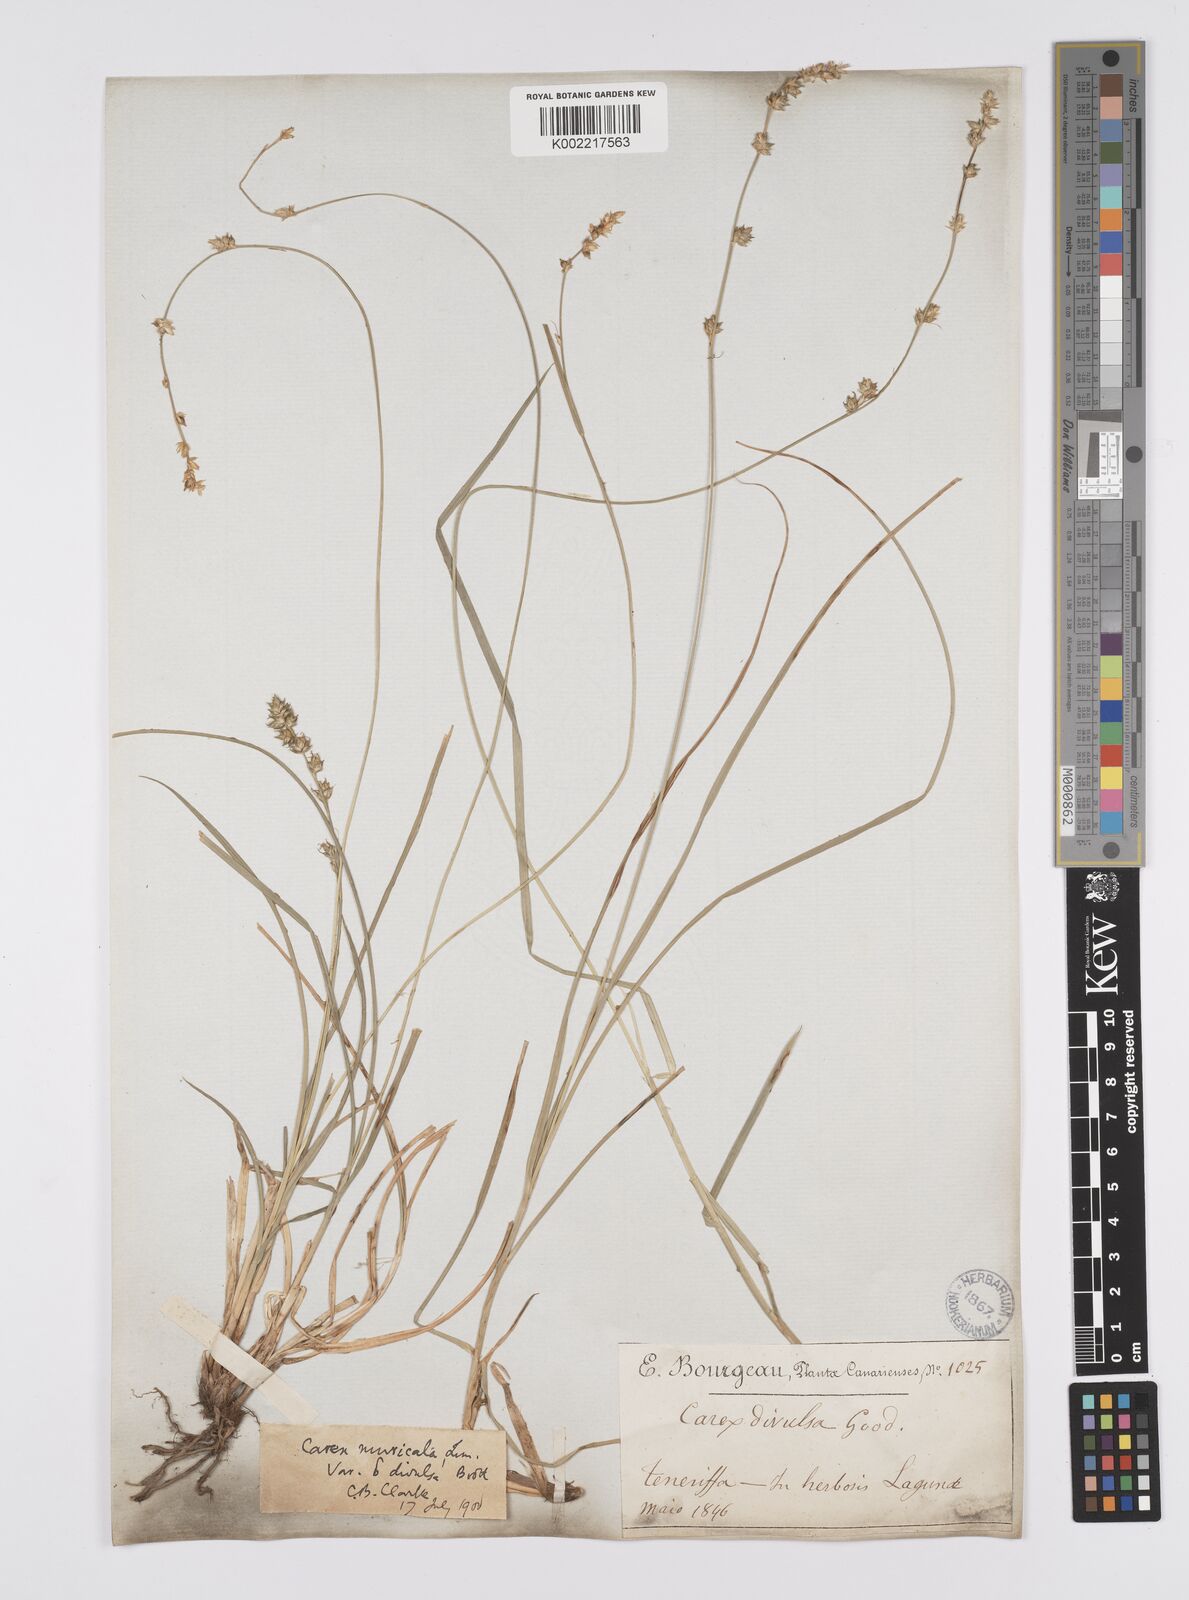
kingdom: Plantae
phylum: Tracheophyta
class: Liliopsida
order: Poales
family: Cyperaceae
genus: Carex
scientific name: Carex divulsa
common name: Grassland sedge
